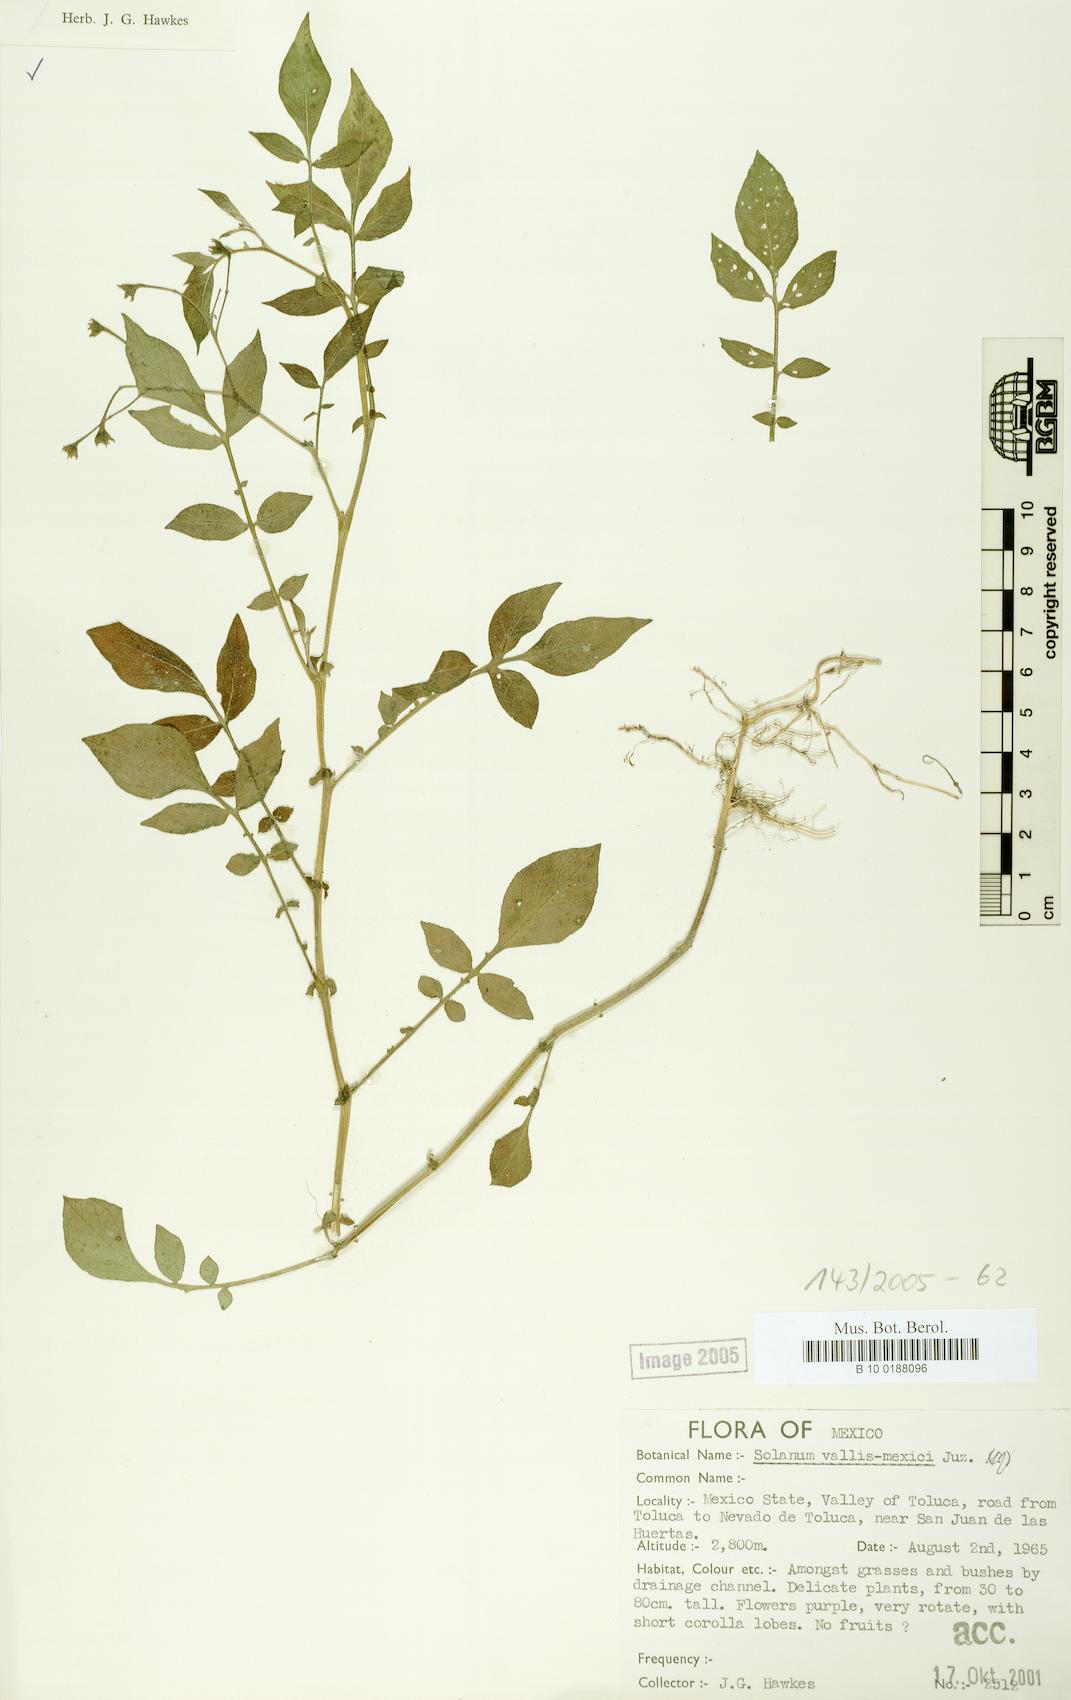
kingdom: Plantae
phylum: Tracheophyta
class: Magnoliopsida
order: Solanales
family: Solanaceae
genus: Solanum
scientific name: Solanum vallis-mexici
